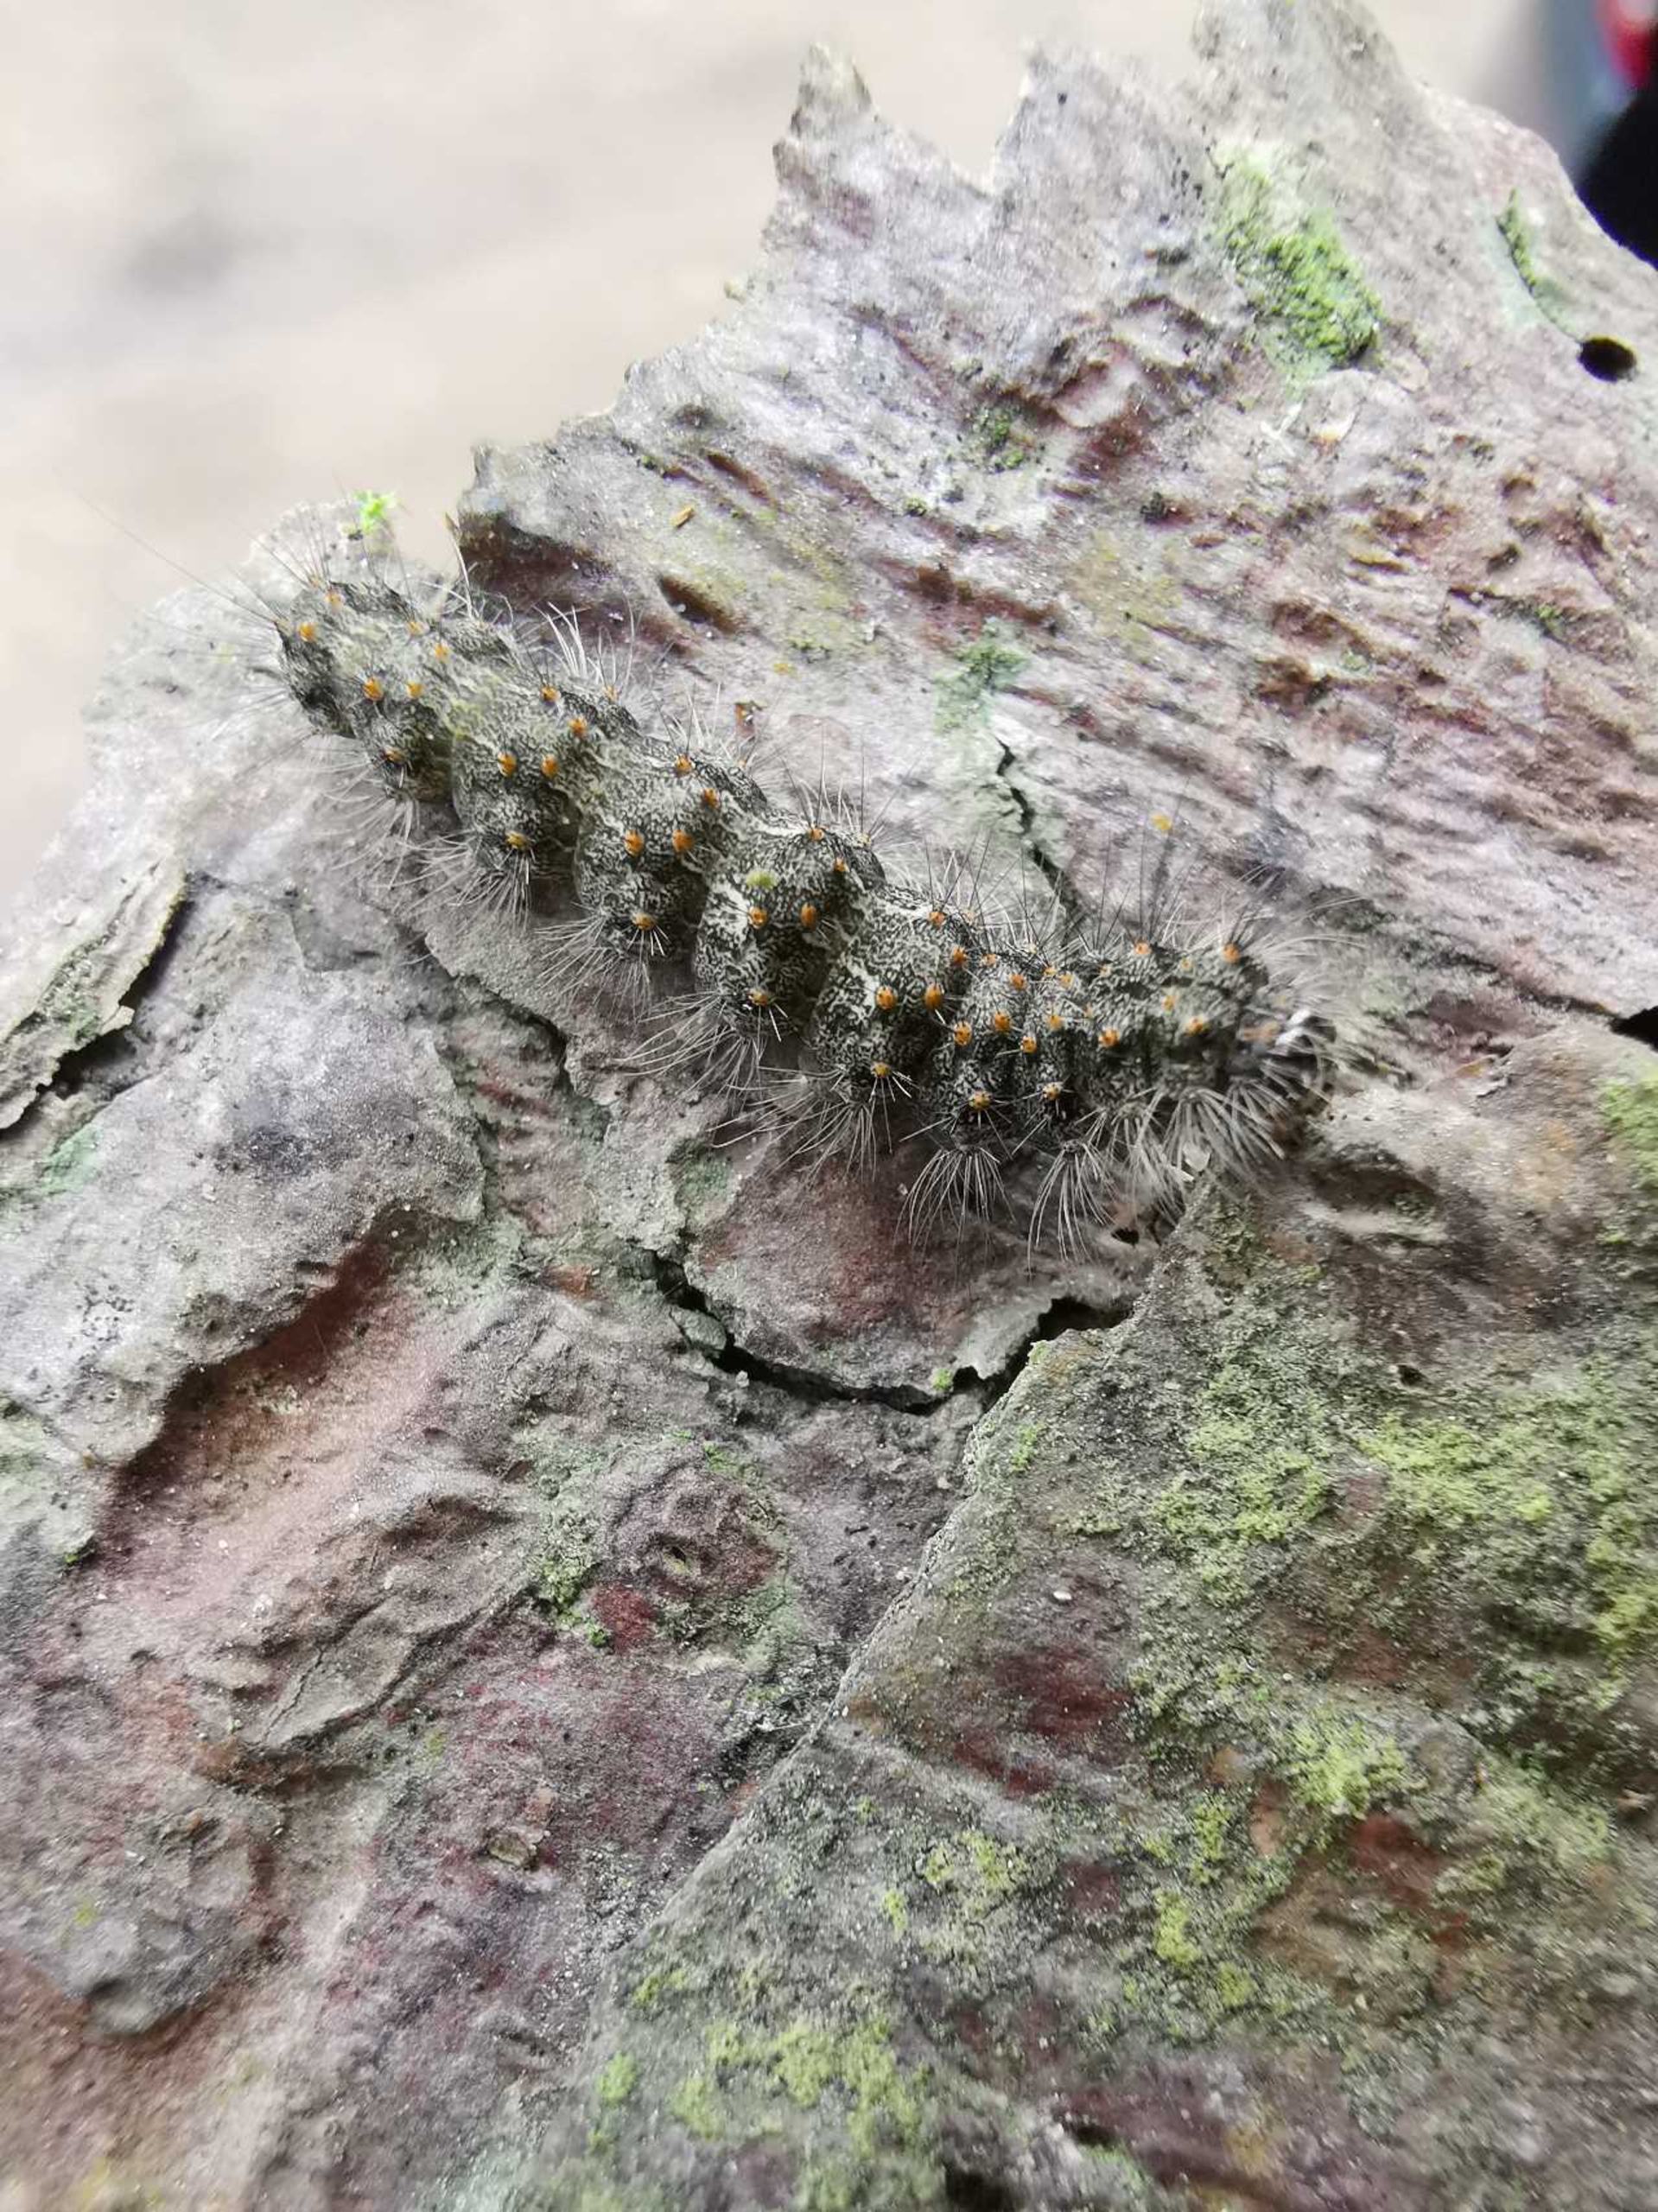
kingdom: Animalia
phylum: Arthropoda
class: Insecta
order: Lepidoptera
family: Erebidae
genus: Atolmis
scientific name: Atolmis rubricollis
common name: Blodnakke
